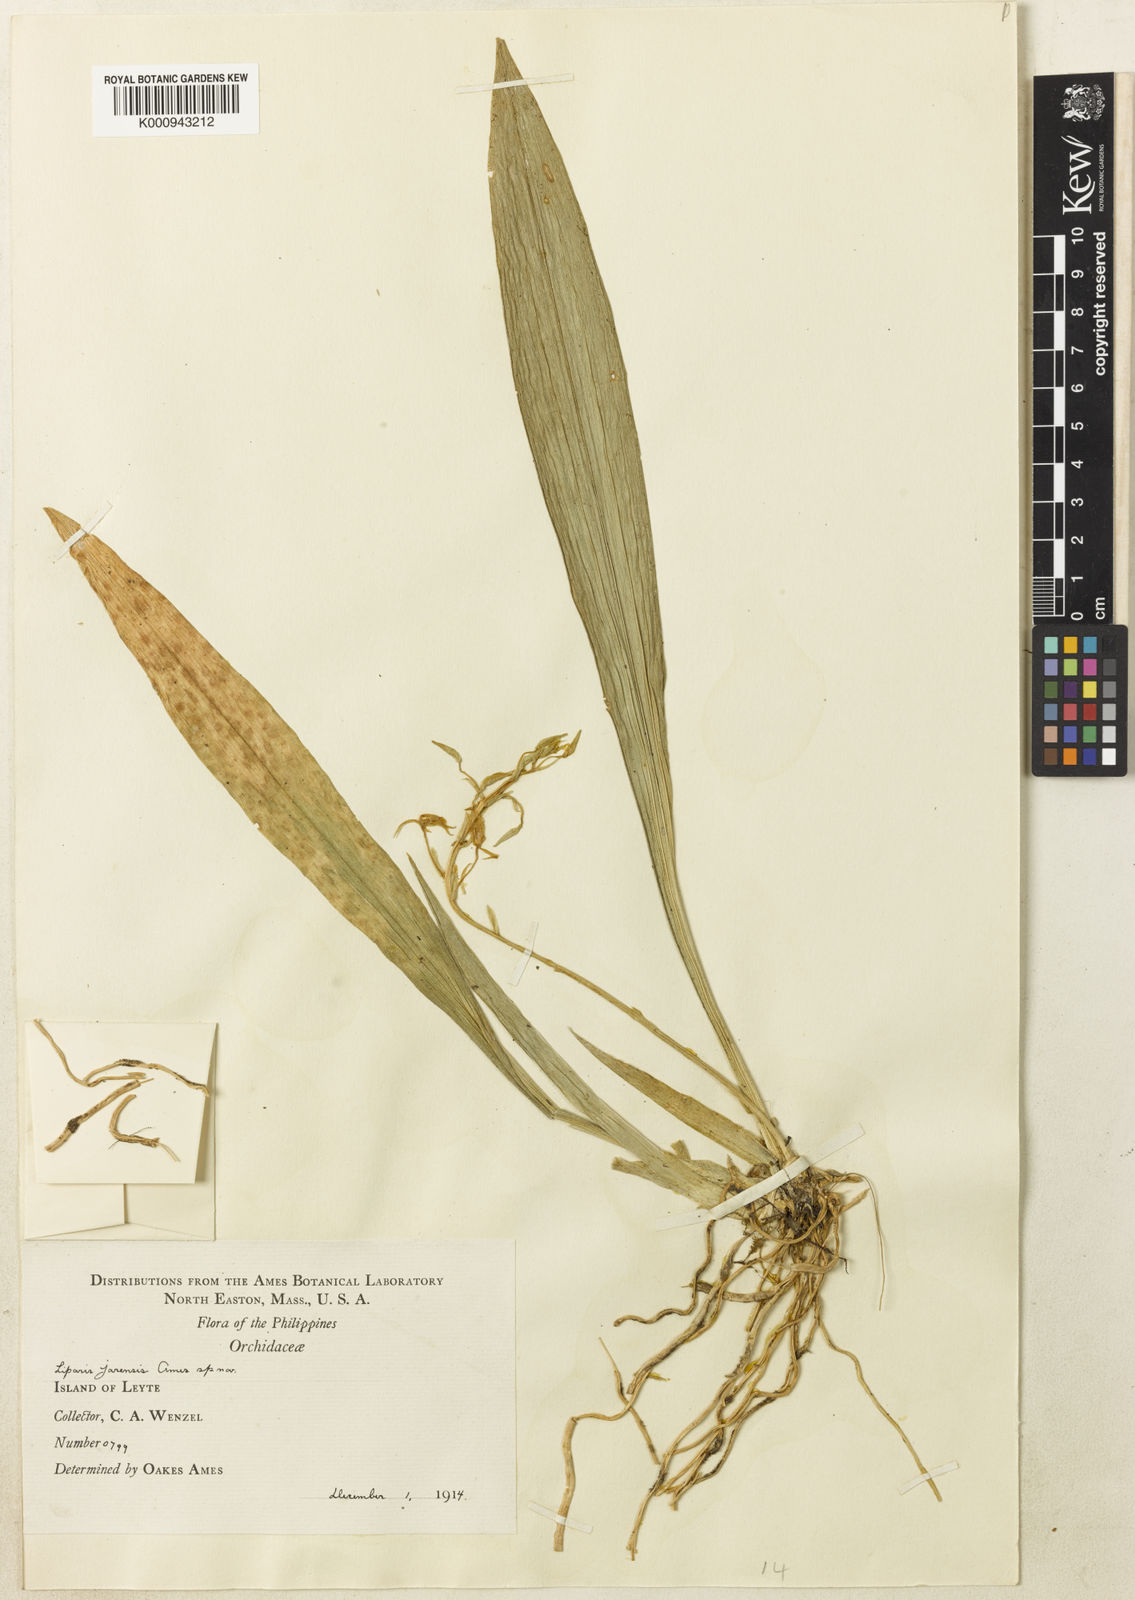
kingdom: Plantae
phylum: Tracheophyta
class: Liliopsida
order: Asparagales
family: Orchidaceae
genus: Liparis
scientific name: Liparis javanica
